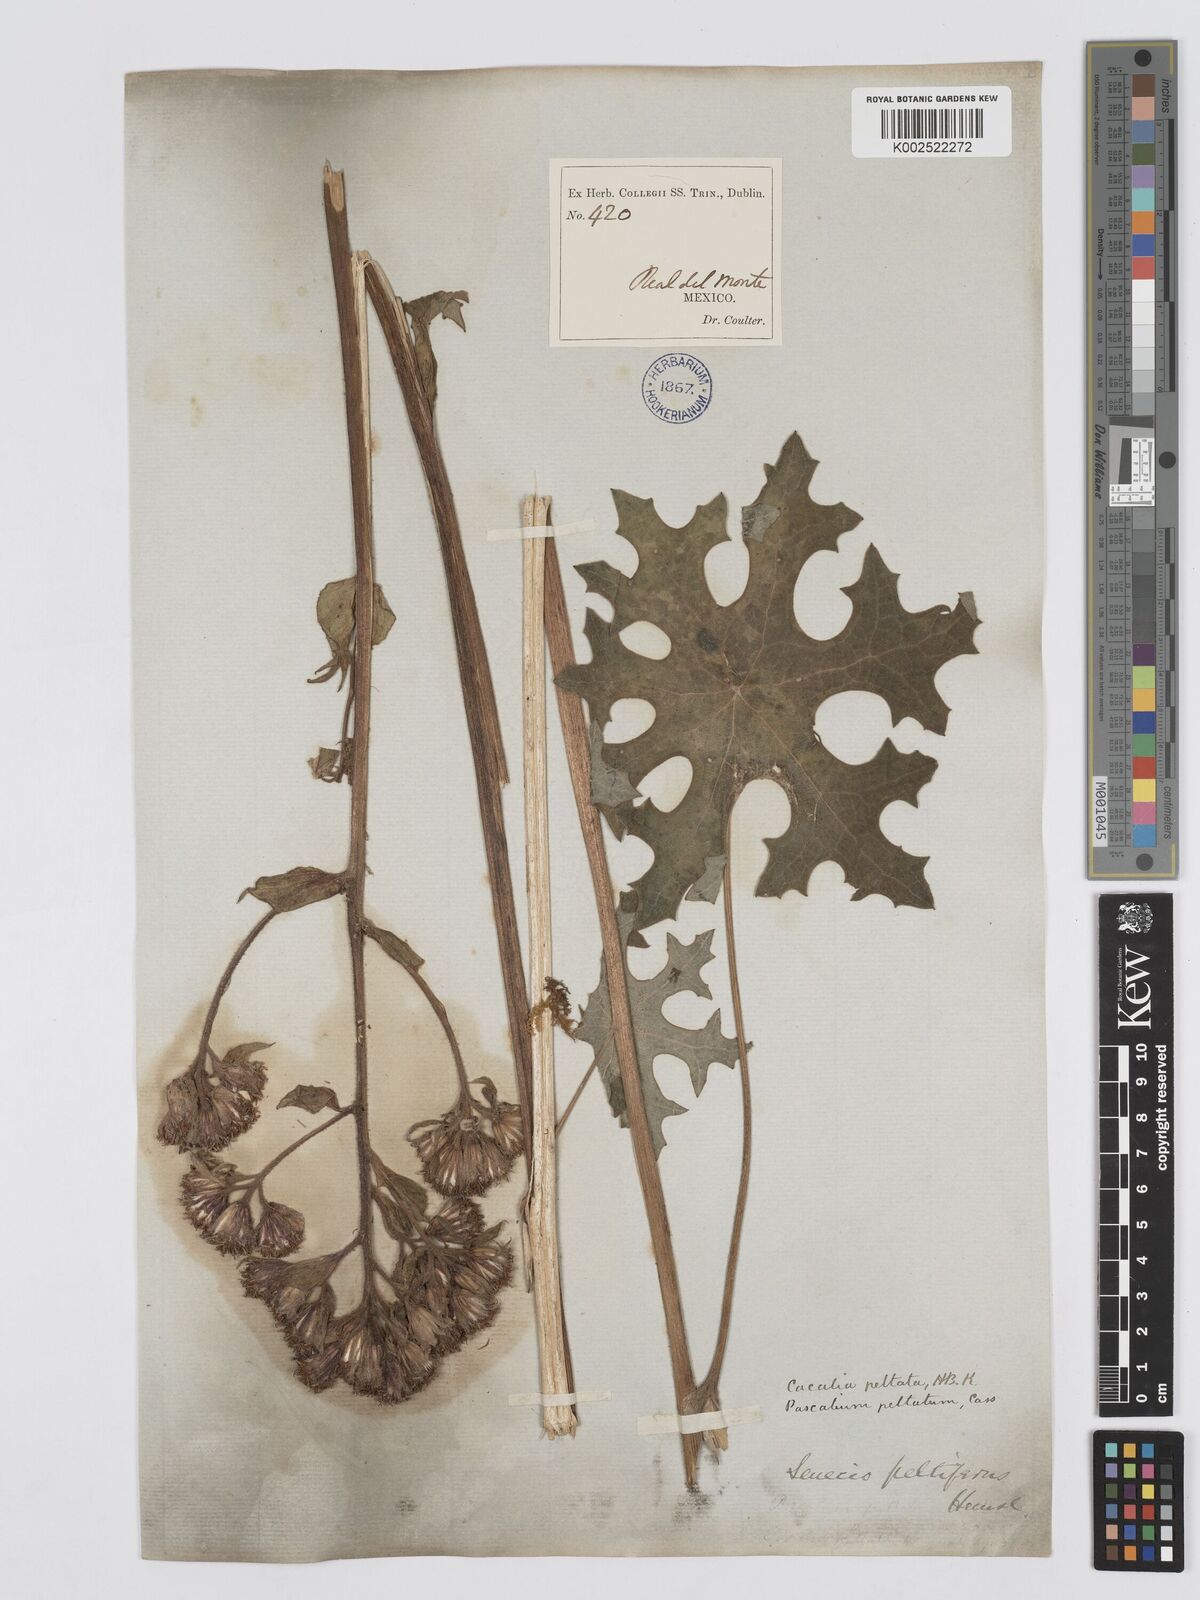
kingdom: Plantae
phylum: Tracheophyta
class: Magnoliopsida
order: Asterales
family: Asteraceae
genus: Psacalium
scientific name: Psacalium pachyphyllum
